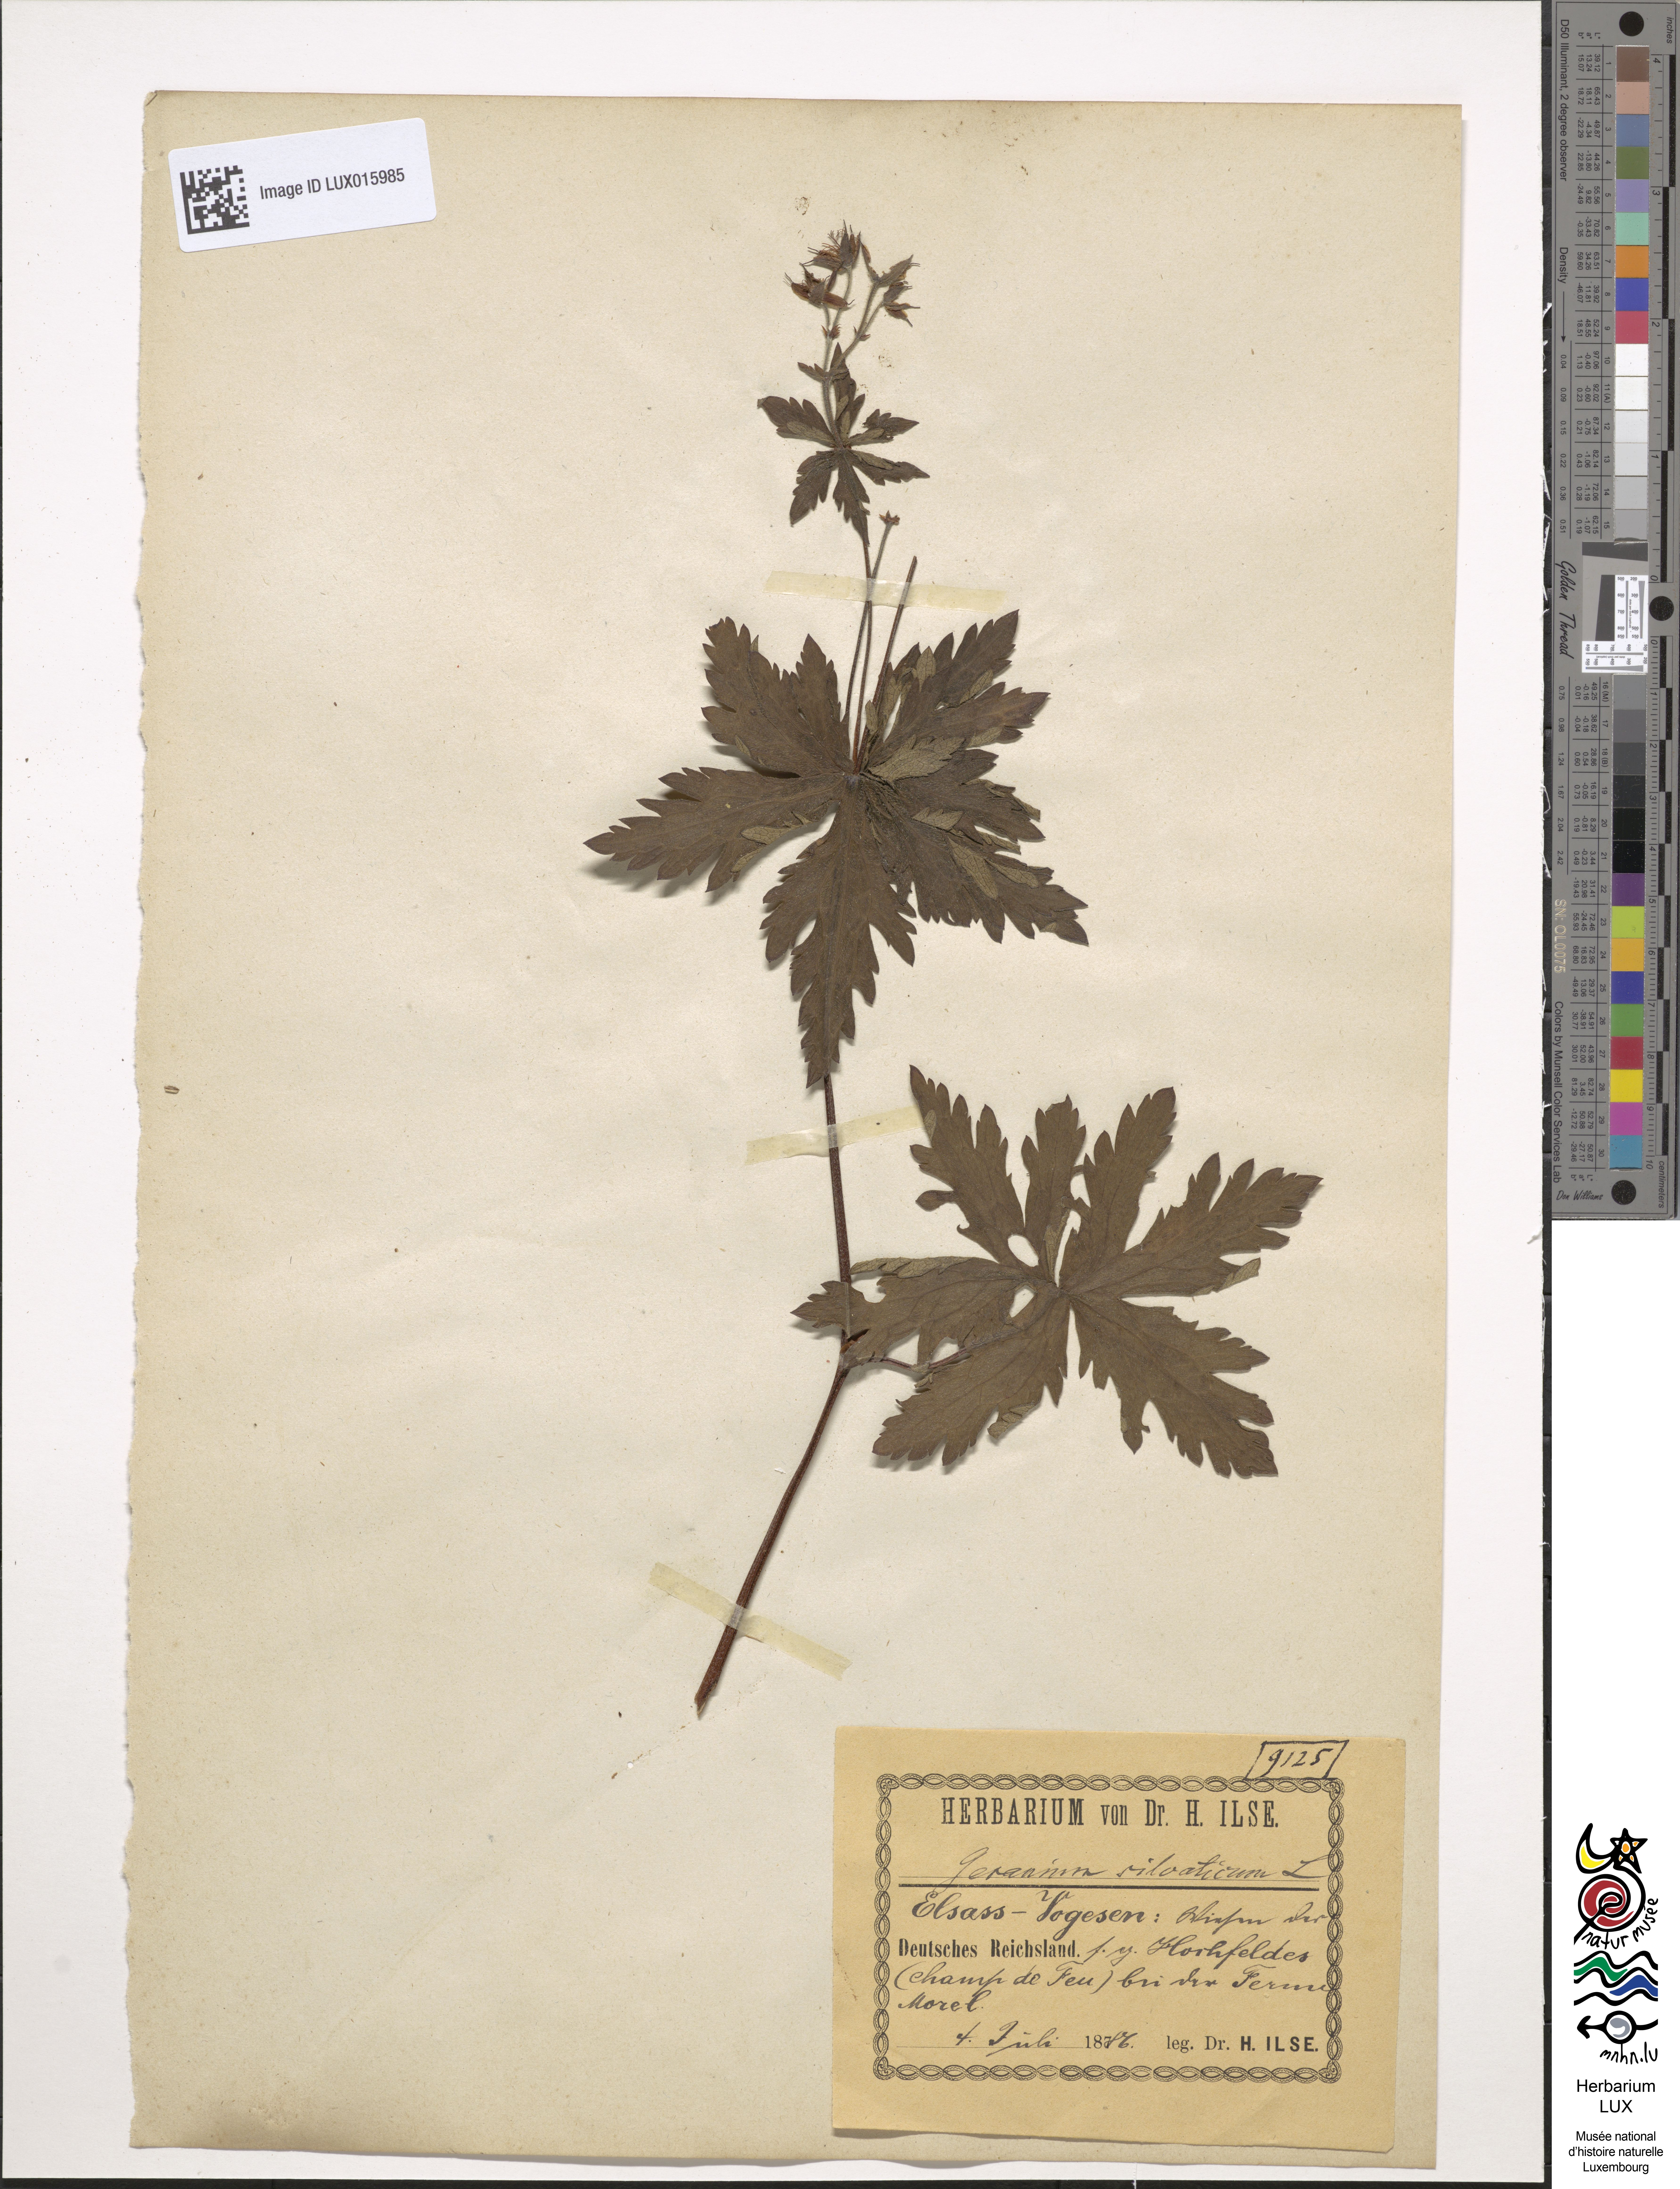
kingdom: Plantae
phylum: Tracheophyta
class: Magnoliopsida
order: Geraniales
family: Geraniaceae
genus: Geranium
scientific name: Geranium sylvaticum
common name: Wood crane's-bill
